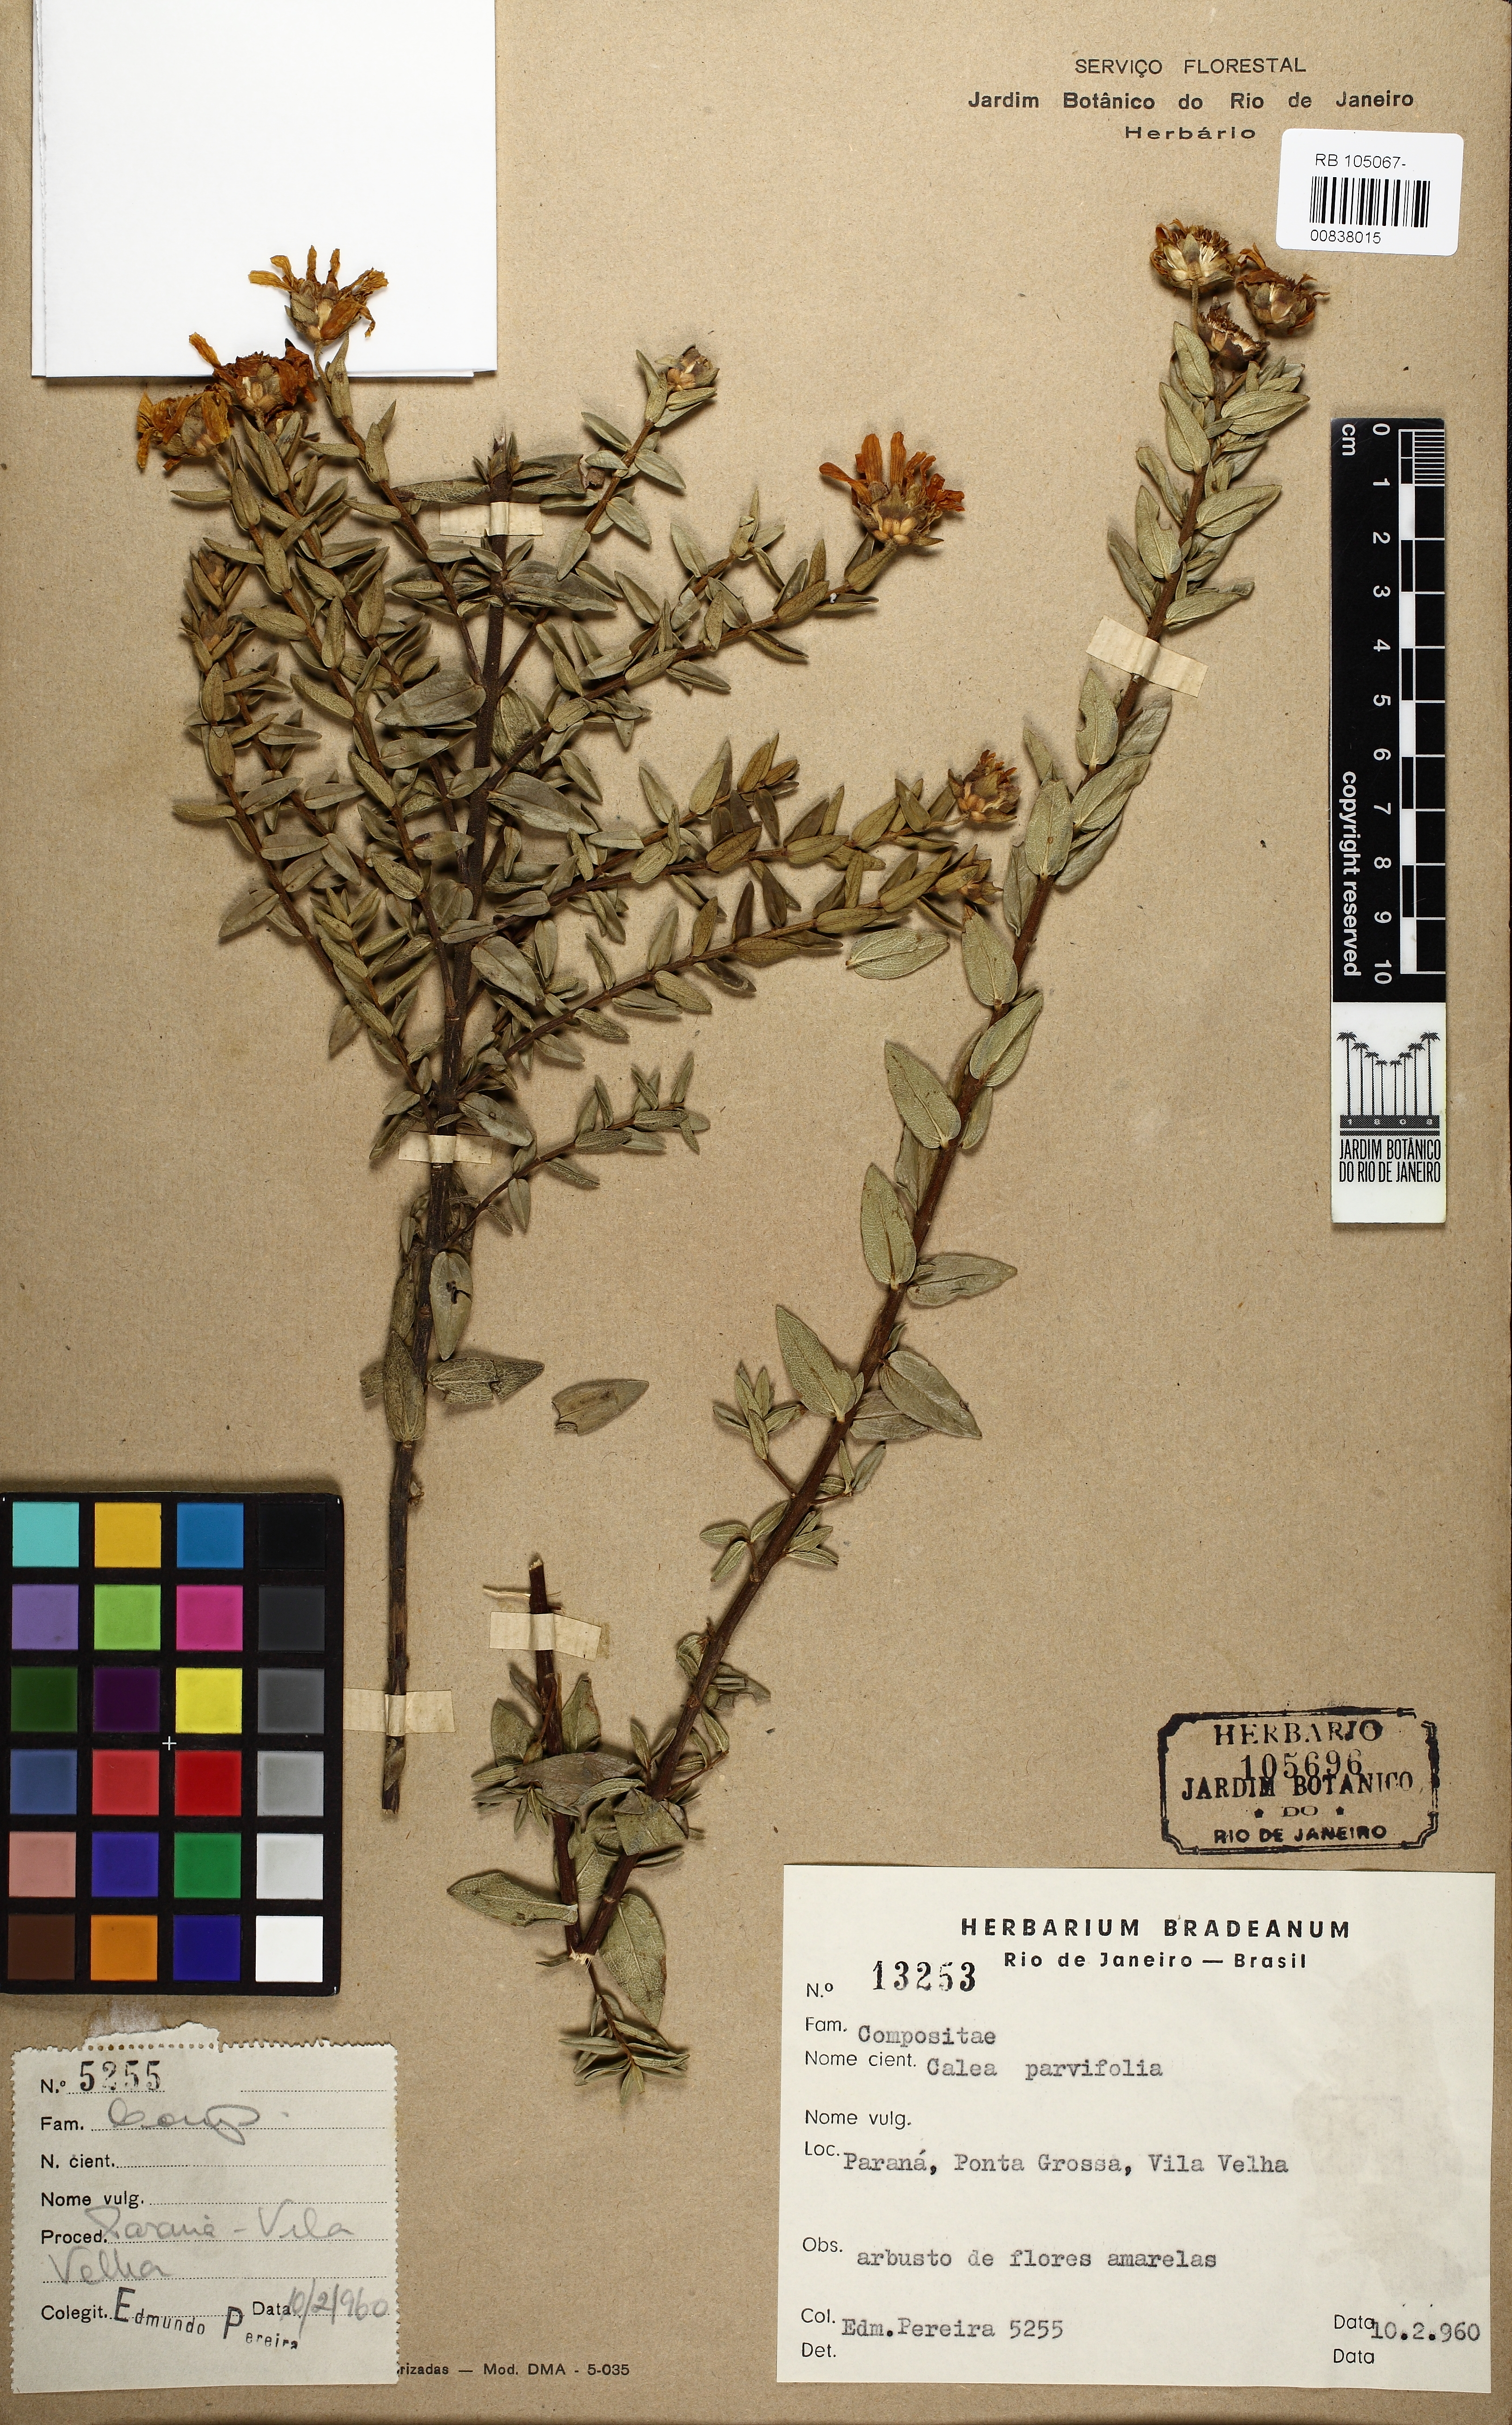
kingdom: Plantae
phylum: Tracheophyta
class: Magnoliopsida
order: Asterales
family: Asteraceae
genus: Calea
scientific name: Calea acaulis
